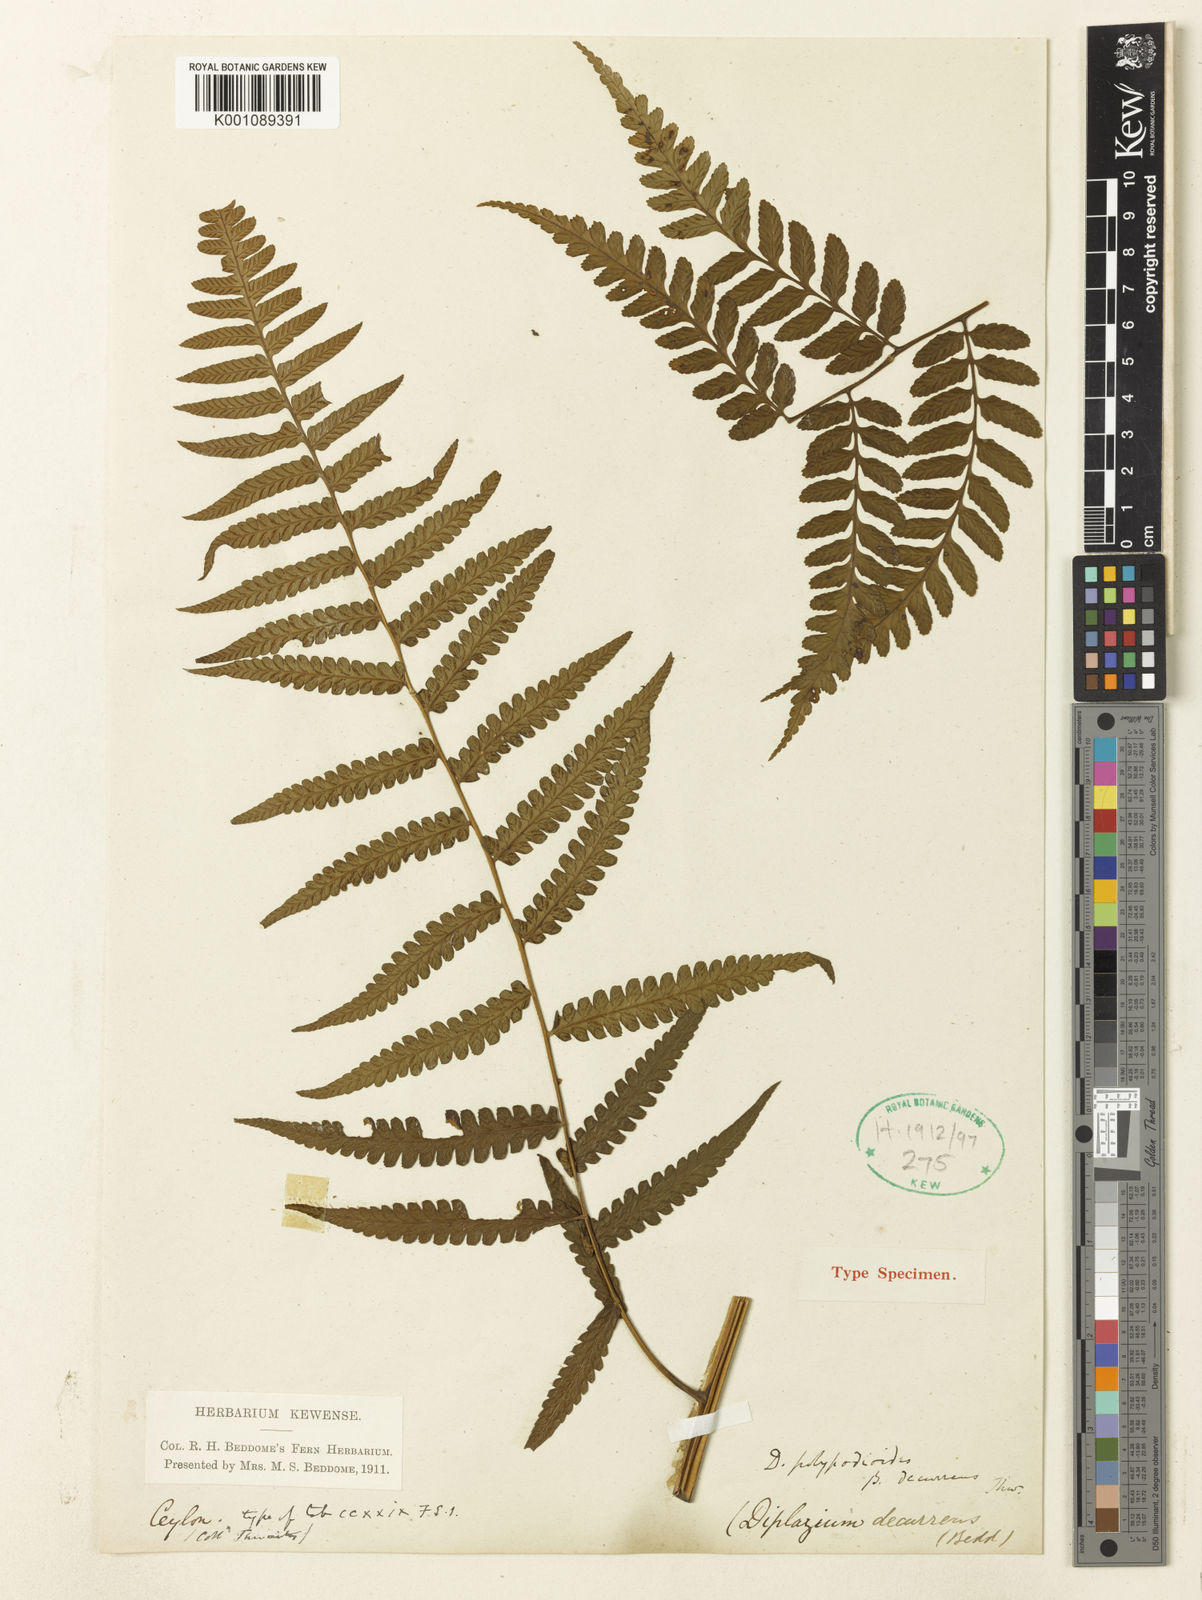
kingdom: Plantae
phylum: Tracheophyta
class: Polypodiopsida
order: Polypodiales
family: Athyriaceae
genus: Diplazium
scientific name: Diplazium decurrens
